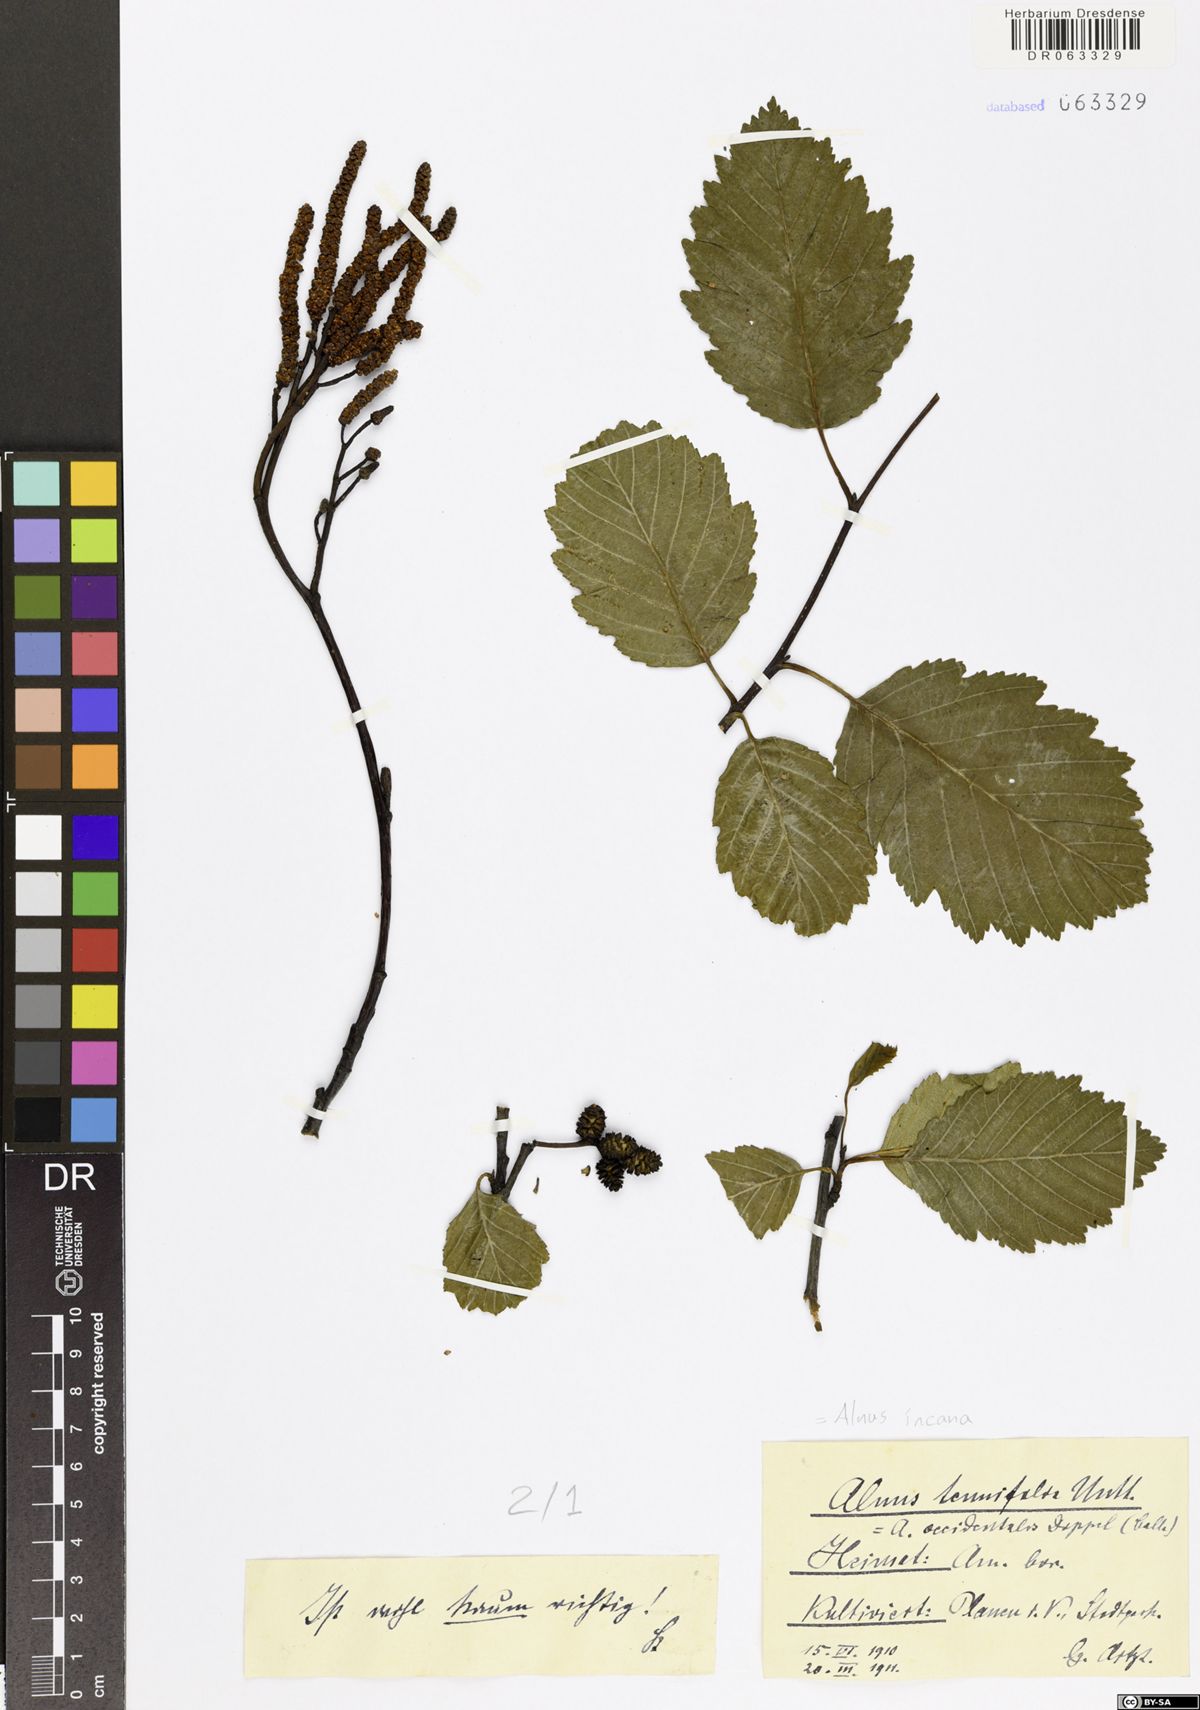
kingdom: Plantae
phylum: Tracheophyta
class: Magnoliopsida
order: Fagales
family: Betulaceae
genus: Alnus
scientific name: Alnus incana
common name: Grey alder
